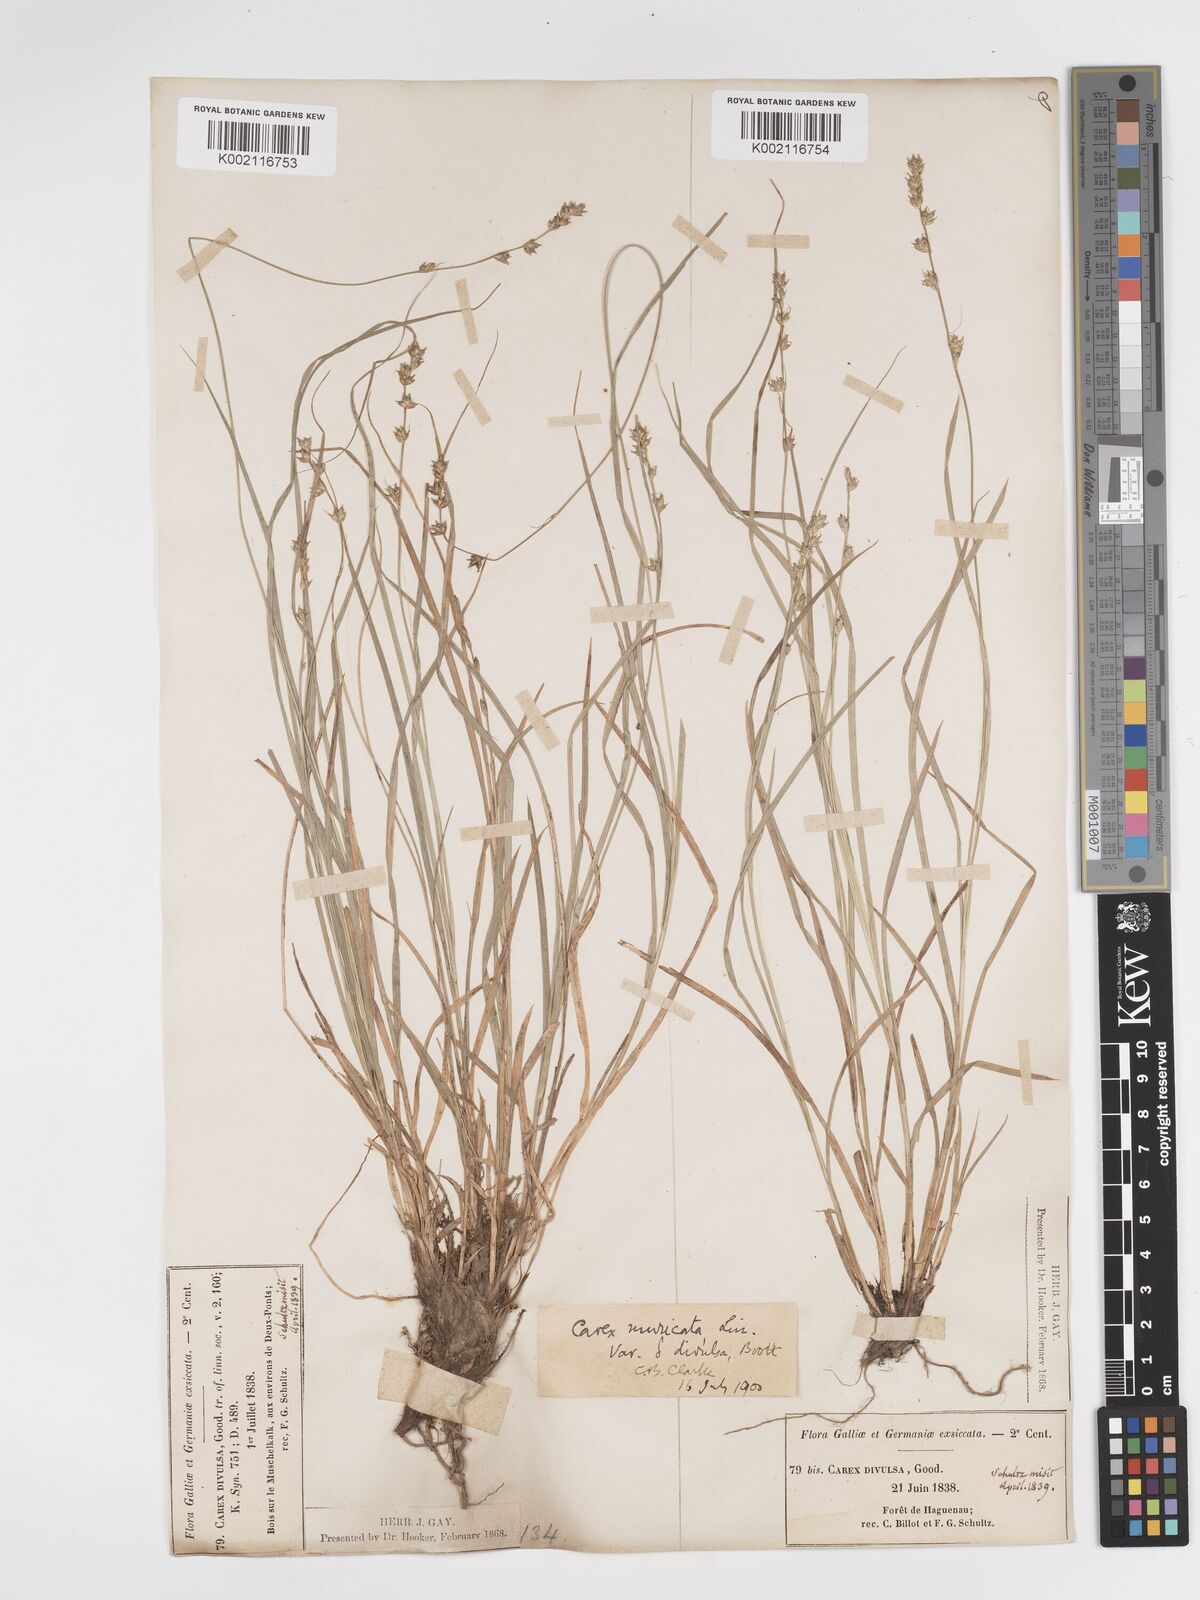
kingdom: Plantae
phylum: Tracheophyta
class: Liliopsida
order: Poales
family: Cyperaceae
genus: Carex
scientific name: Carex divulsa
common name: Grassland sedge
